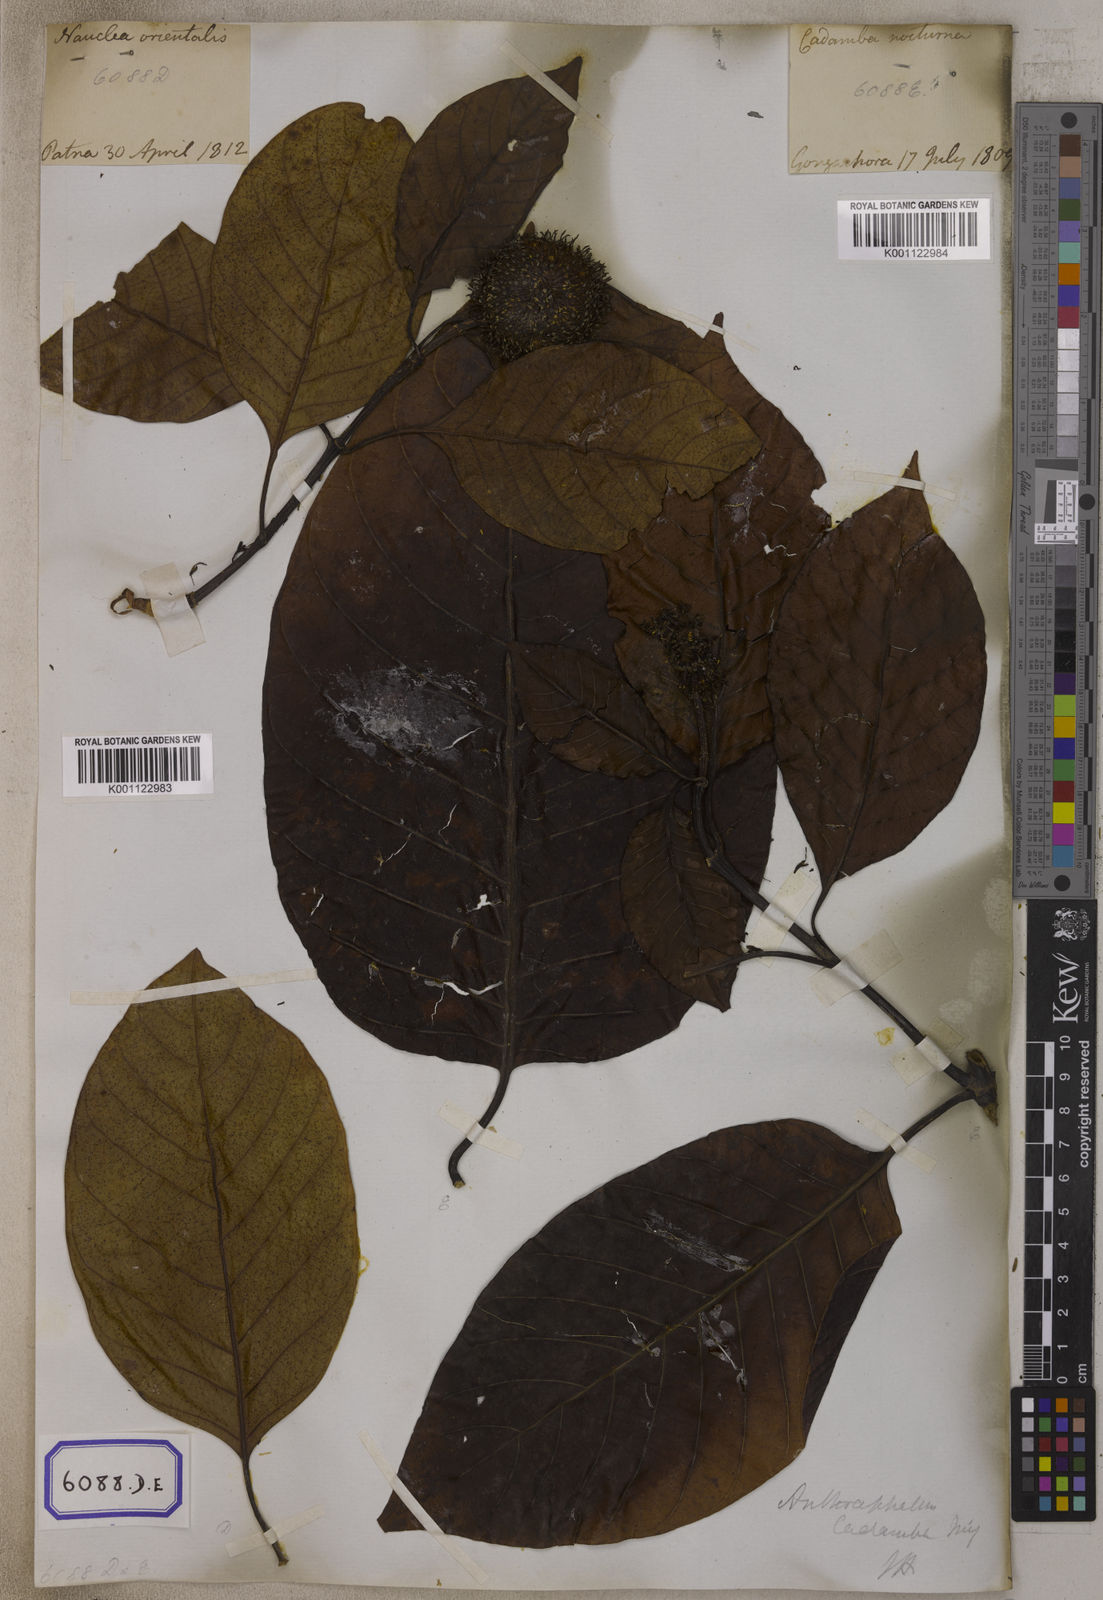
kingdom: Plantae
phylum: Tracheophyta
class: Magnoliopsida
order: Gentianales
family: Rubiaceae
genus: Neolamarckia
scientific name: Neolamarckia cadamba
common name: Leichhardt-pine
